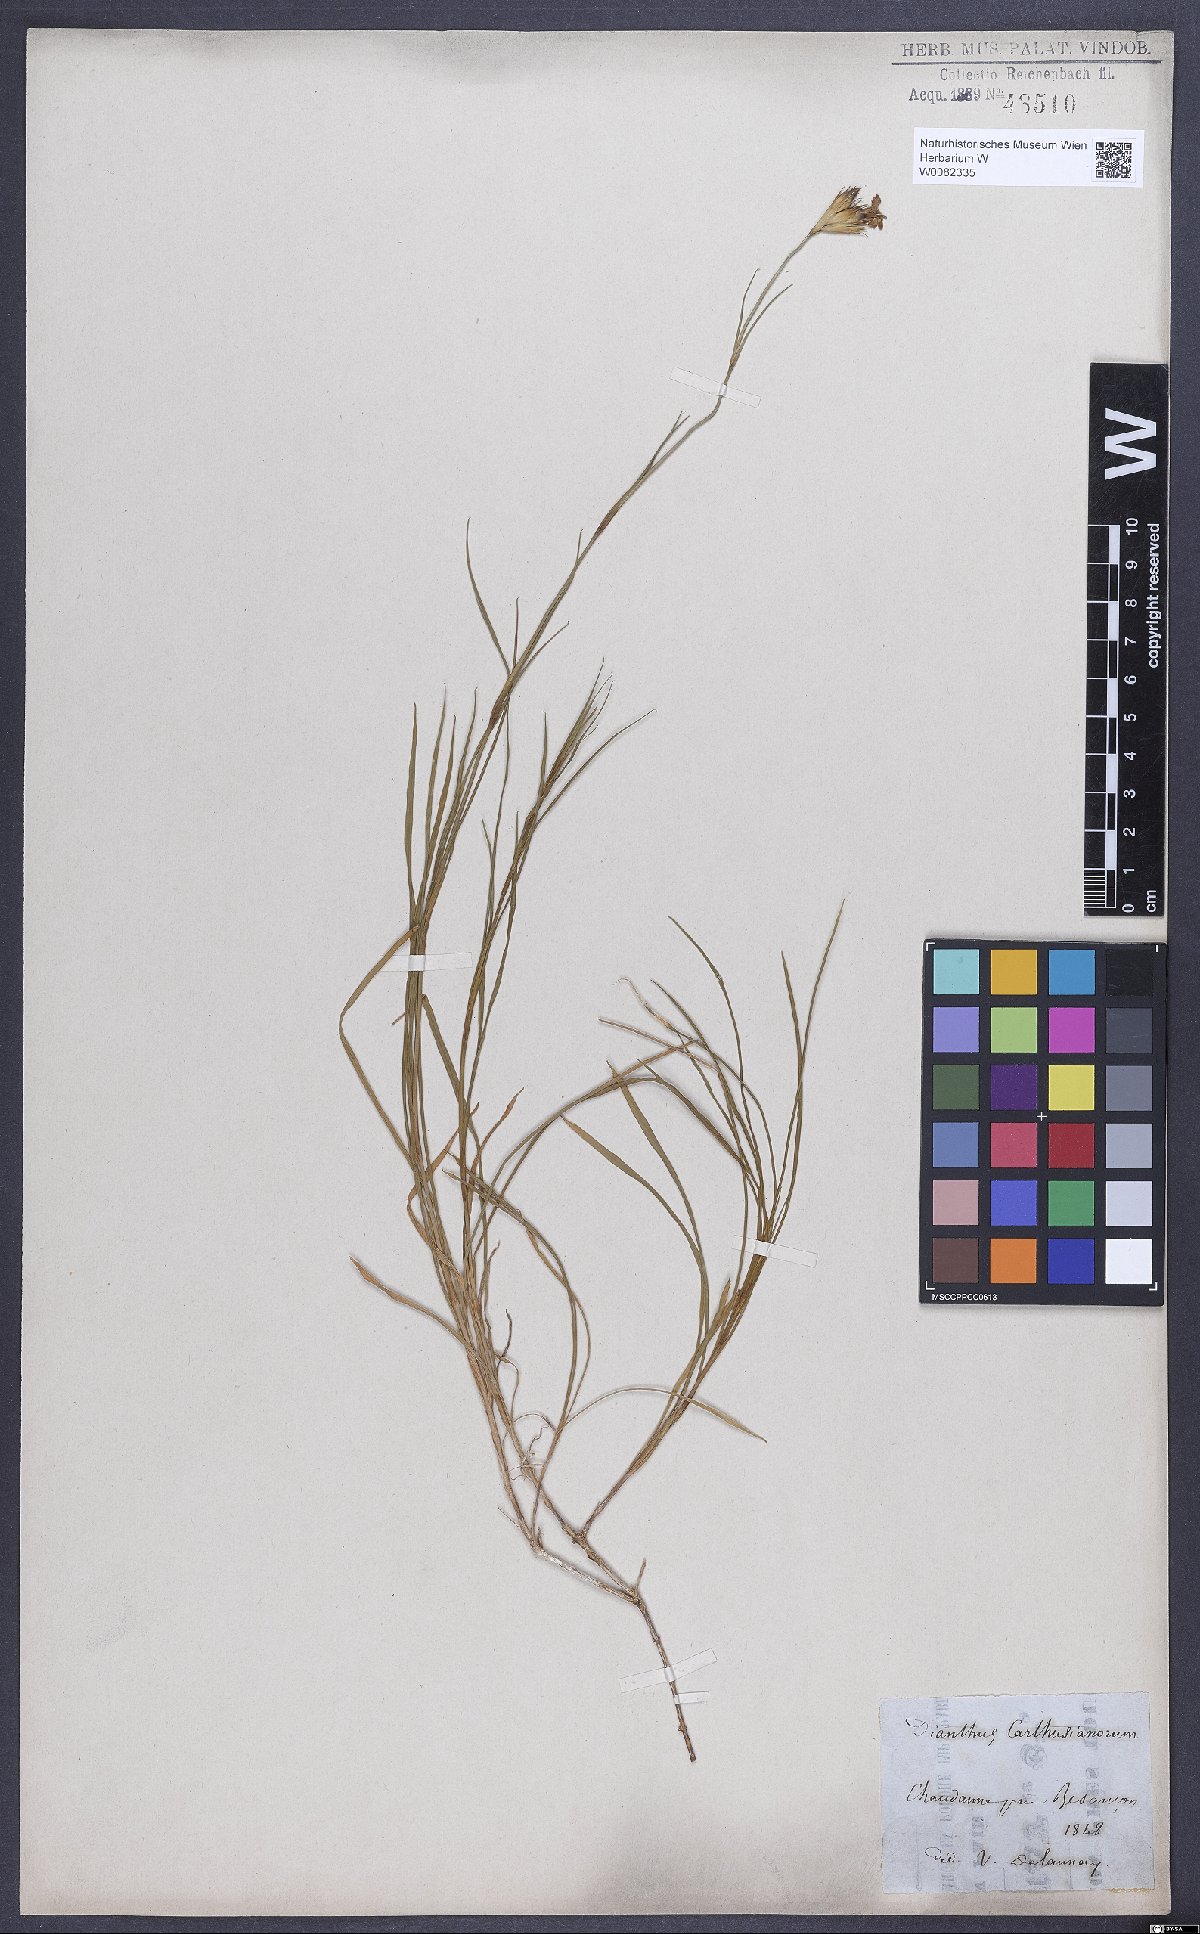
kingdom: Plantae
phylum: Tracheophyta
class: Magnoliopsida
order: Caryophyllales
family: Caryophyllaceae
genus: Dianthus
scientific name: Dianthus carthusianorum
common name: Carthusian pink
